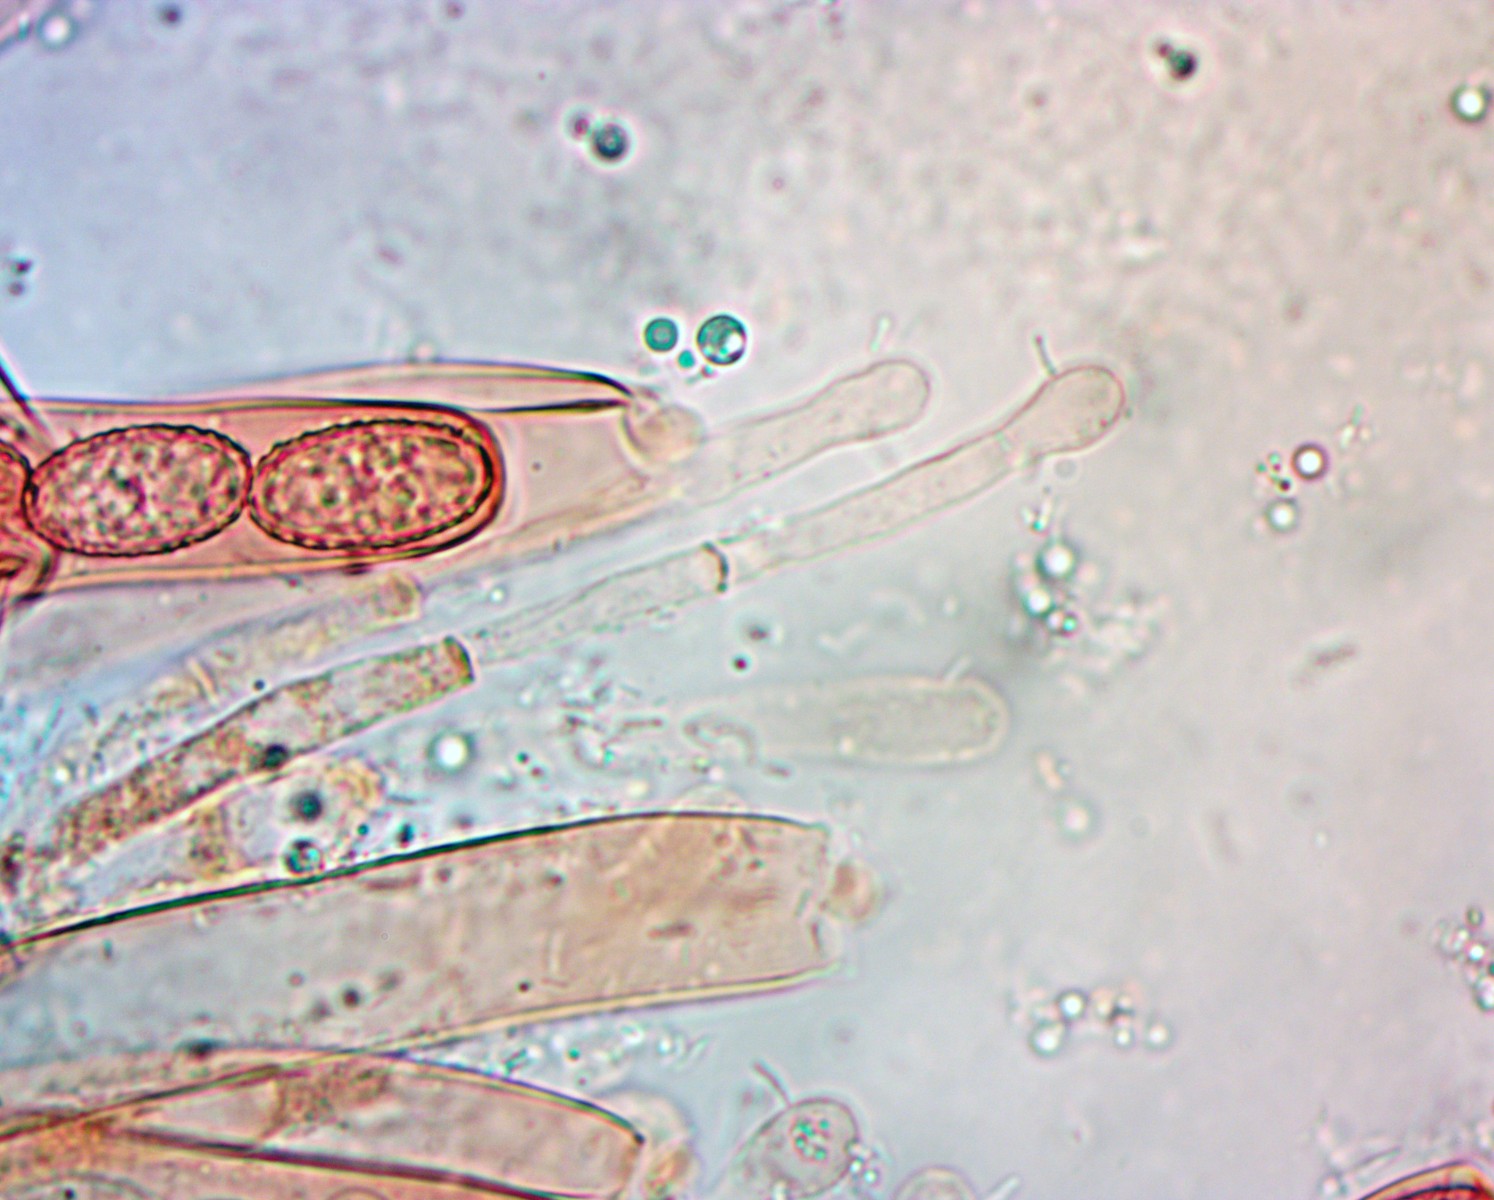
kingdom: Fungi
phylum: Ascomycota
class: Pezizomycetes
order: Pezizales
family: Pezizaceae
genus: Peziza
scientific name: Peziza
